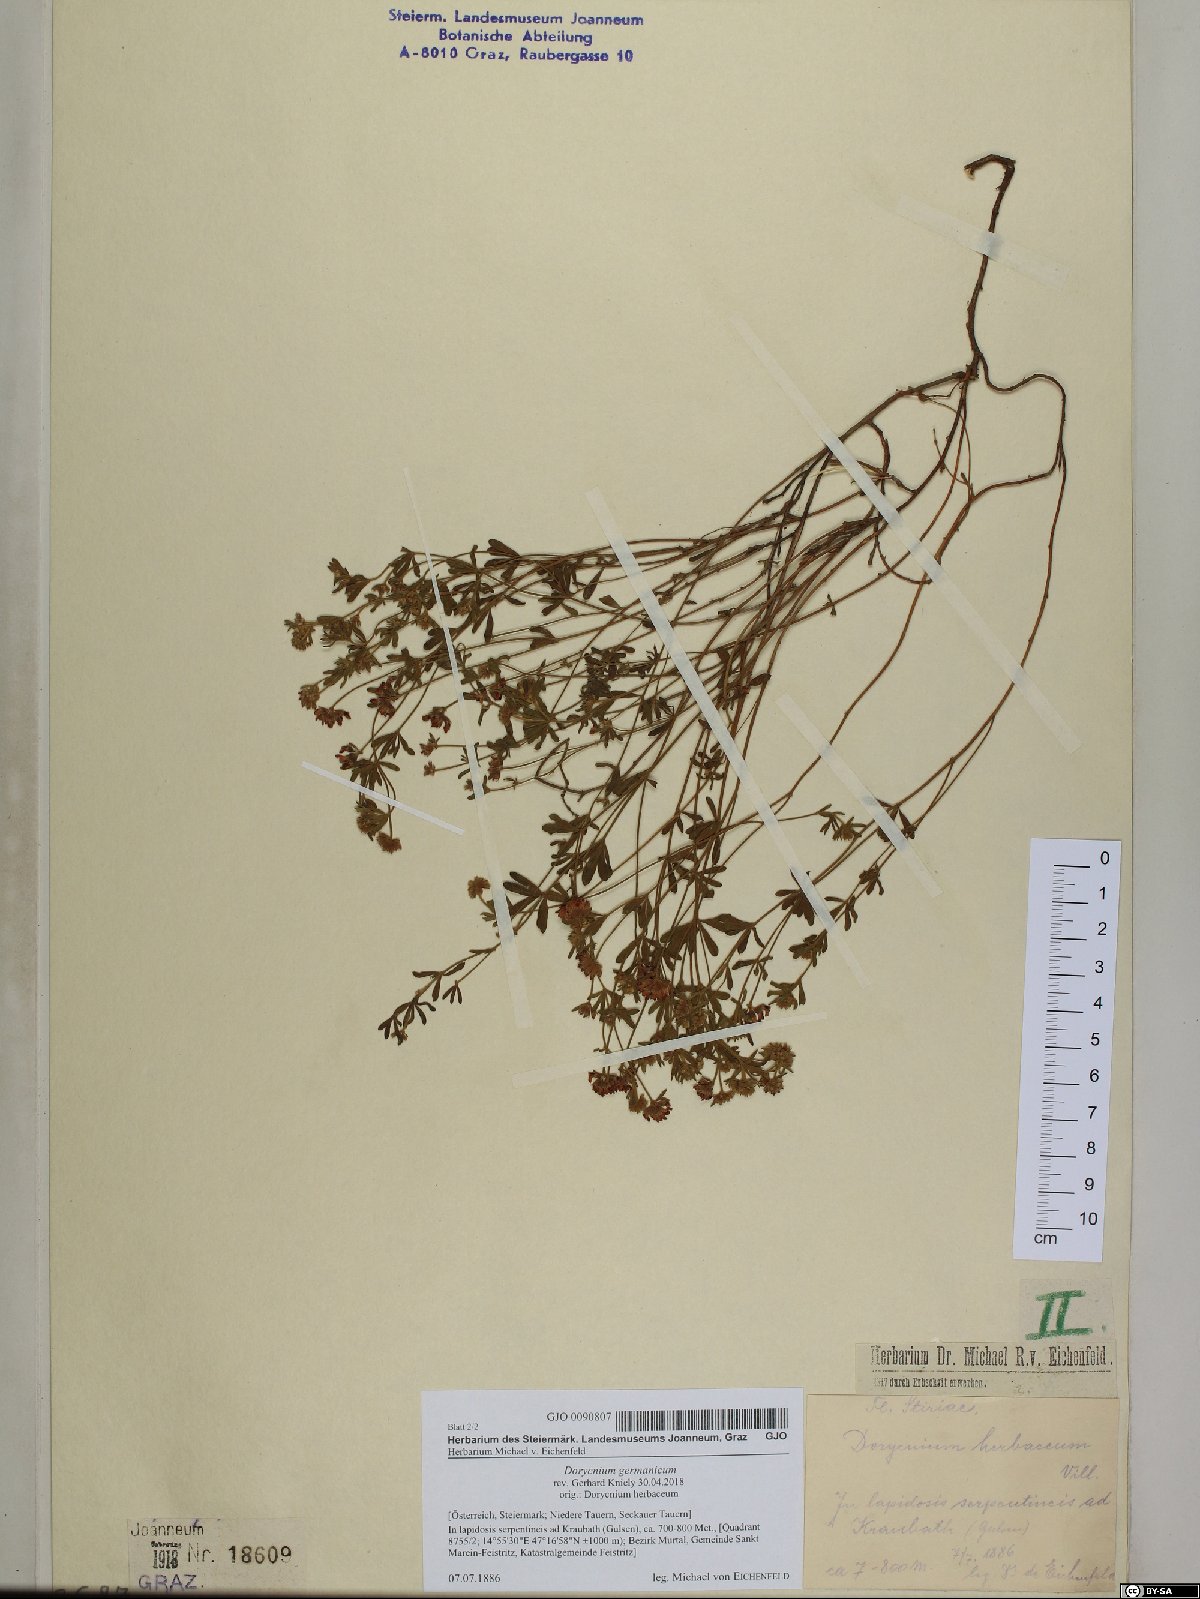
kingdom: Plantae
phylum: Tracheophyta
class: Magnoliopsida
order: Fabales
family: Fabaceae
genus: Lotus
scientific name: Lotus germanicus
